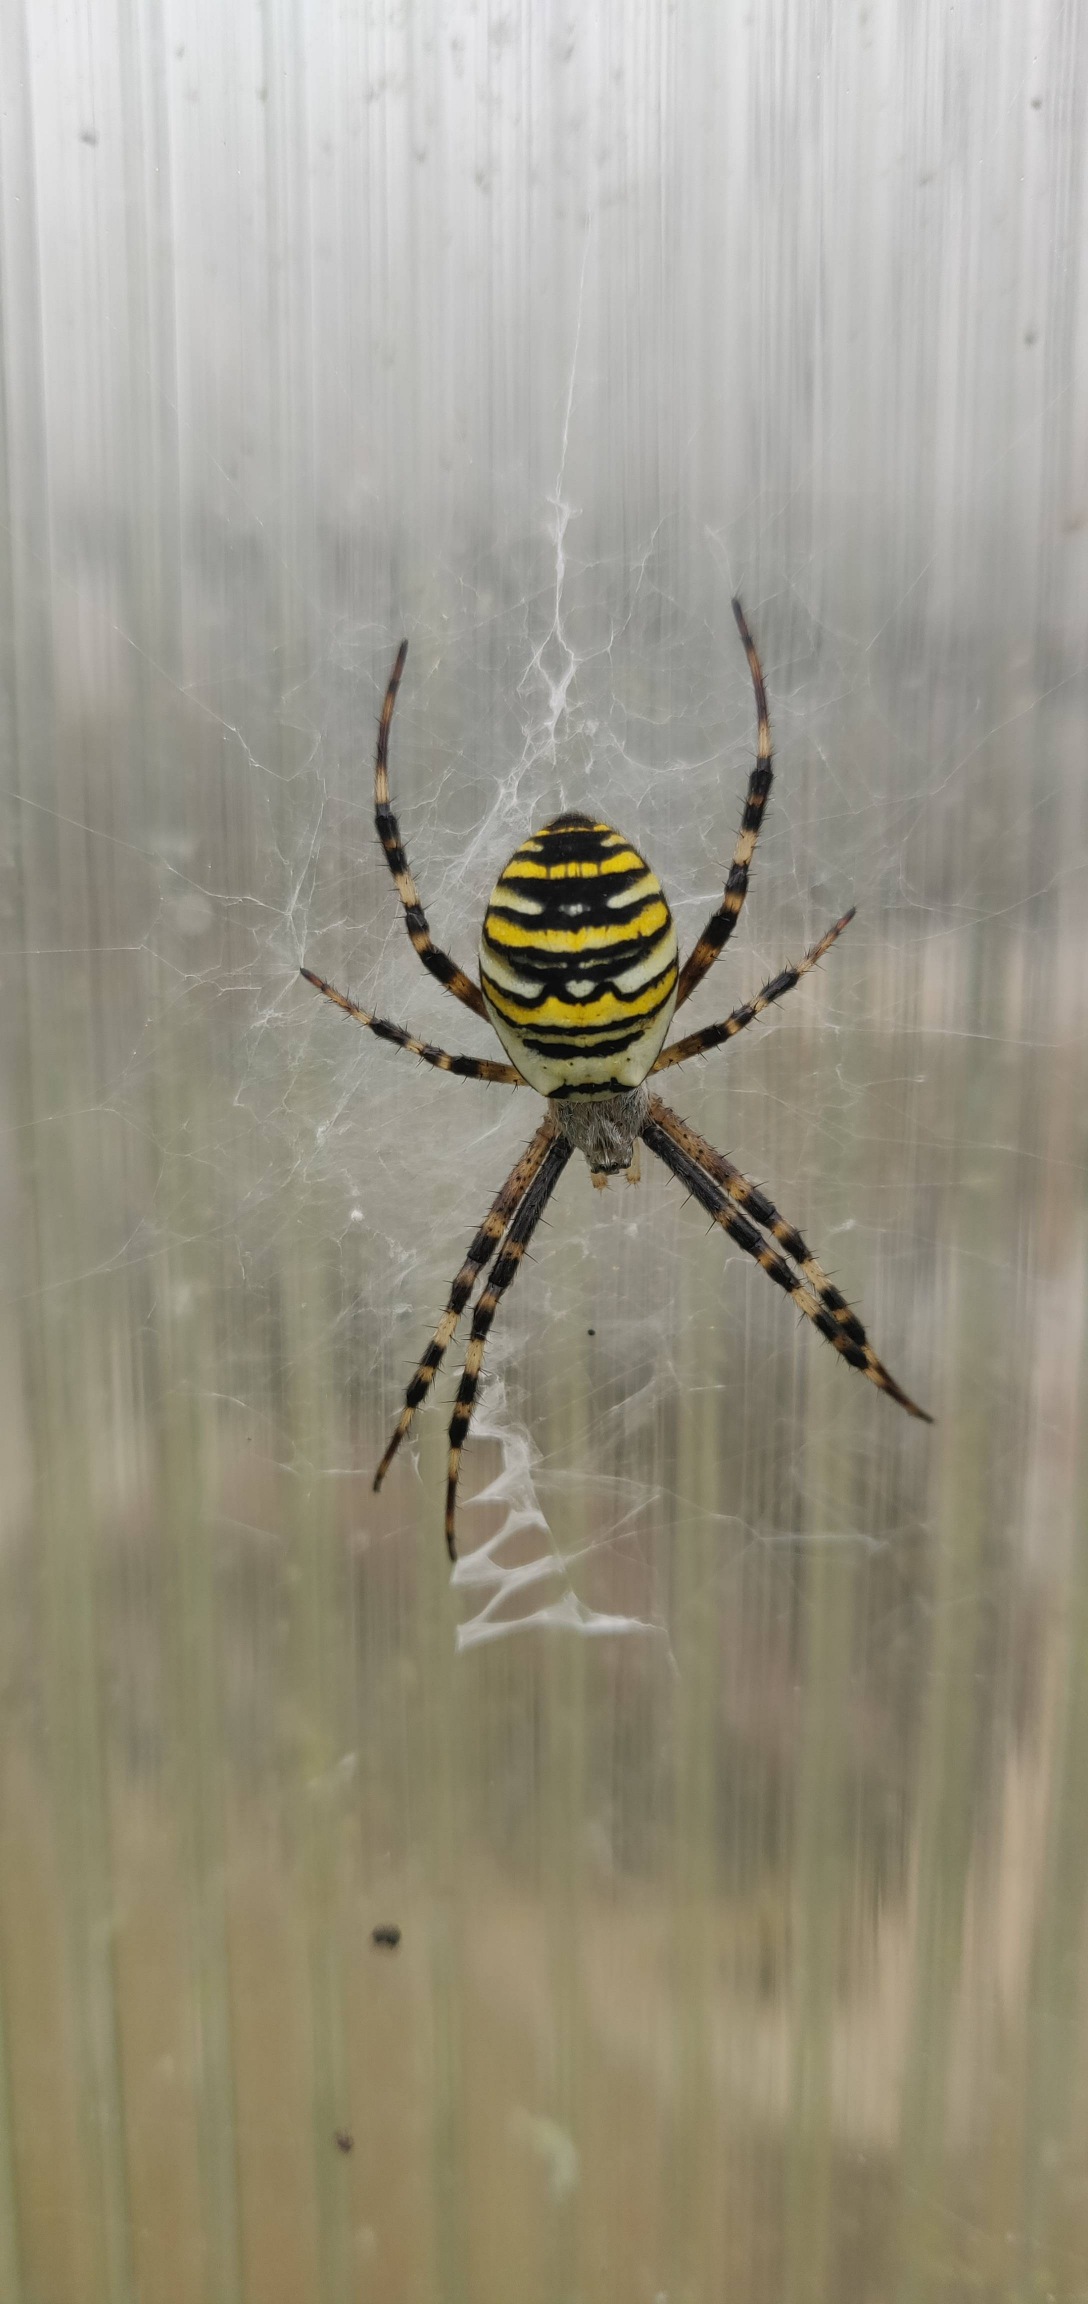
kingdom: Animalia
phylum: Arthropoda
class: Arachnida
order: Araneae
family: Araneidae
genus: Argiope
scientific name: Argiope bruennichi
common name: Hvepseedderkop
